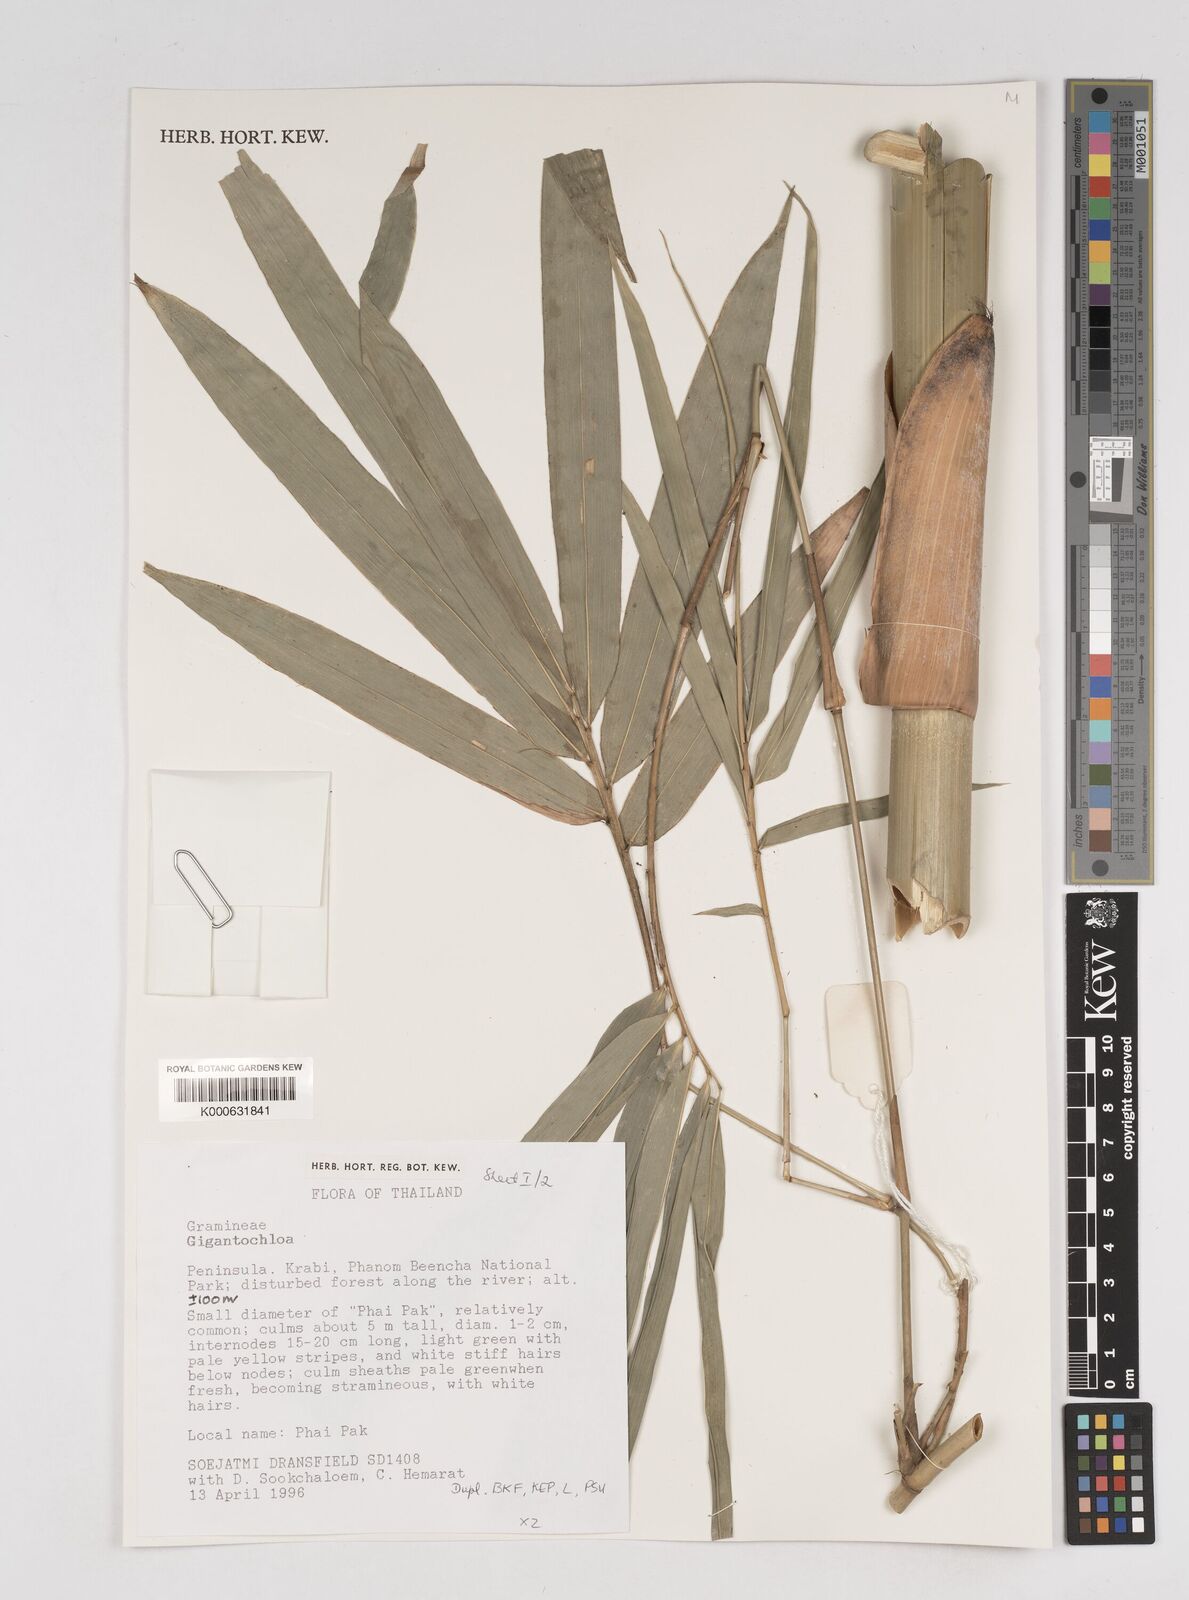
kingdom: Plantae
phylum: Tracheophyta
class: Liliopsida
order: Poales
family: Poaceae
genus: Gigantochloa
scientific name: Gigantochloa
